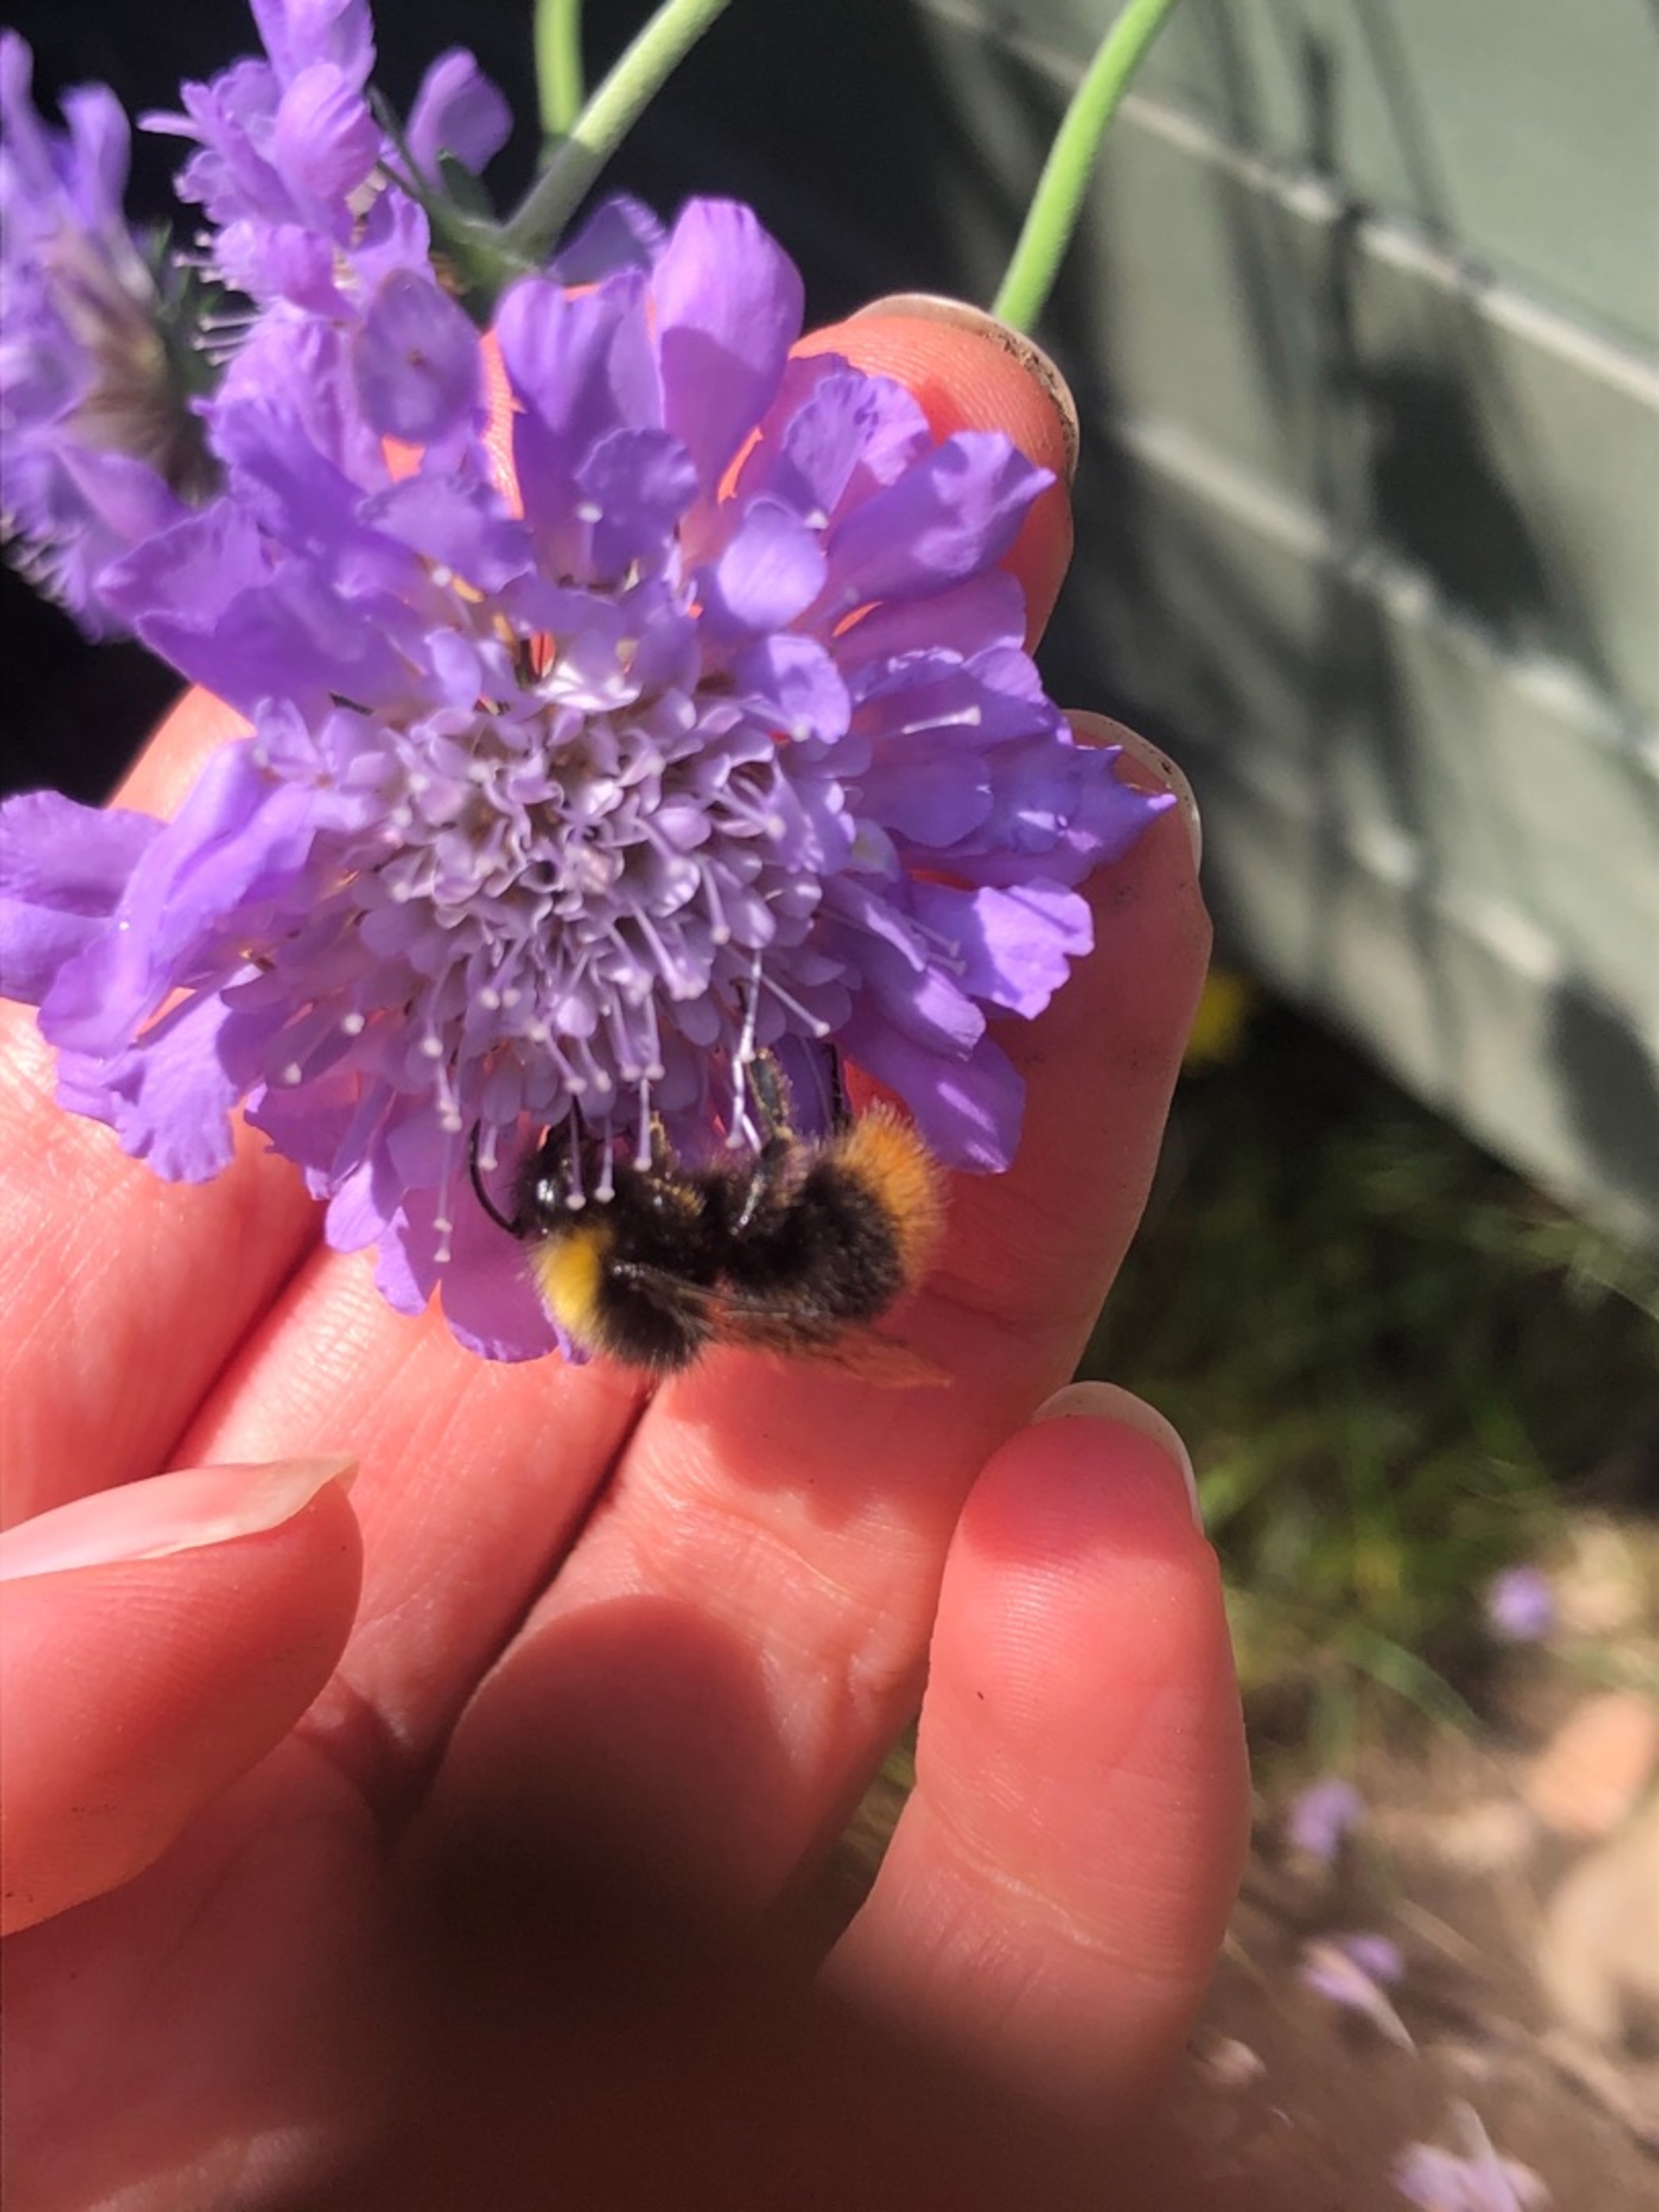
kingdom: Animalia
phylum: Arthropoda
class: Insecta
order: Hymenoptera
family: Apidae
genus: Bombus
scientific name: Bombus pratorum
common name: Lille skovhumle
